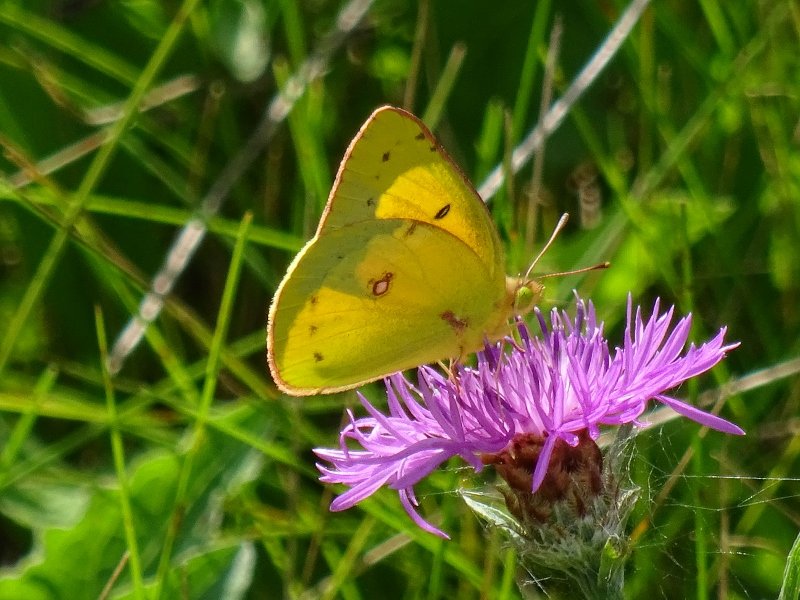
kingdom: Animalia
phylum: Arthropoda
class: Insecta
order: Lepidoptera
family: Pieridae
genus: Colias
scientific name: Colias philodice
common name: Clouded Sulphur
